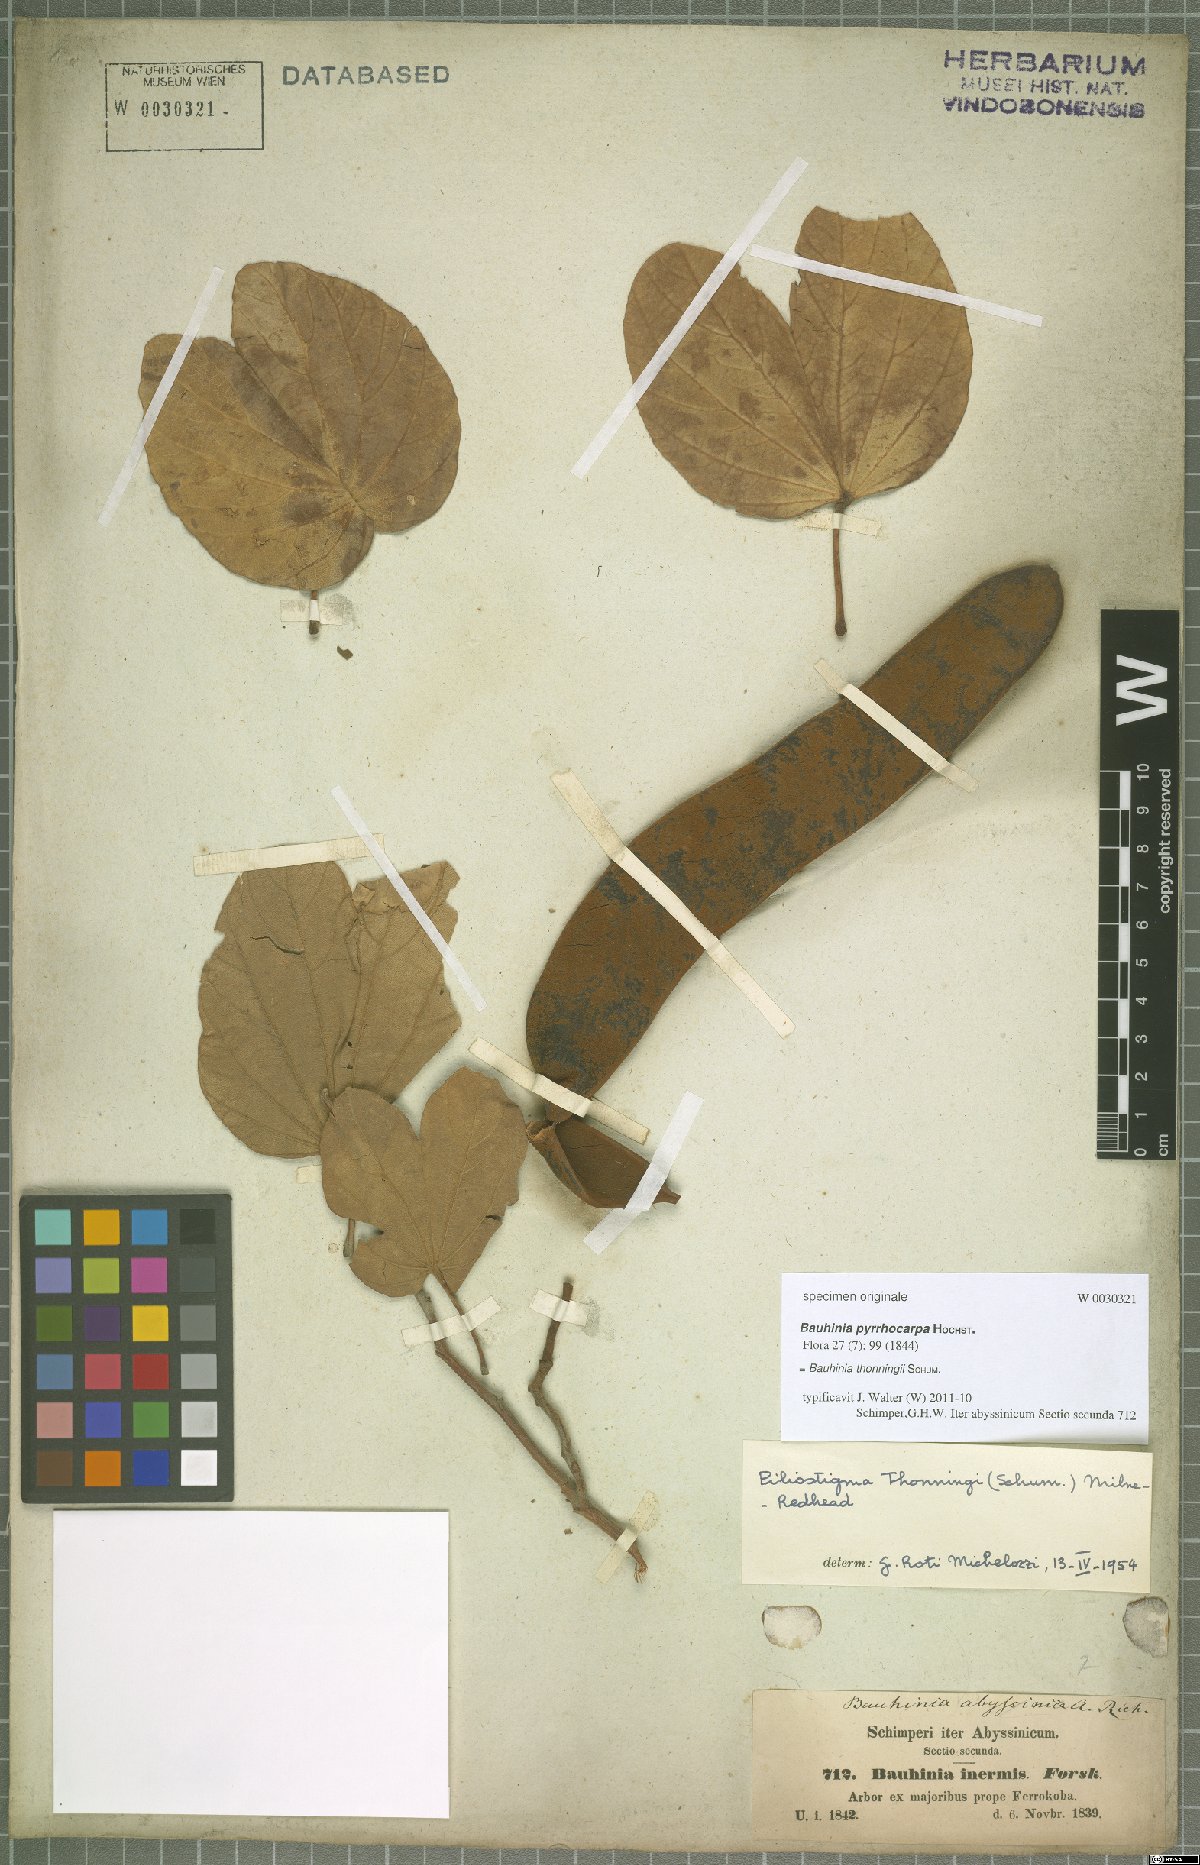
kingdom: Plantae
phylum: Tracheophyta
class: Magnoliopsida
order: Fabales
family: Fabaceae
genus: Piliostigma
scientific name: Piliostigma thonningii
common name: Kao
